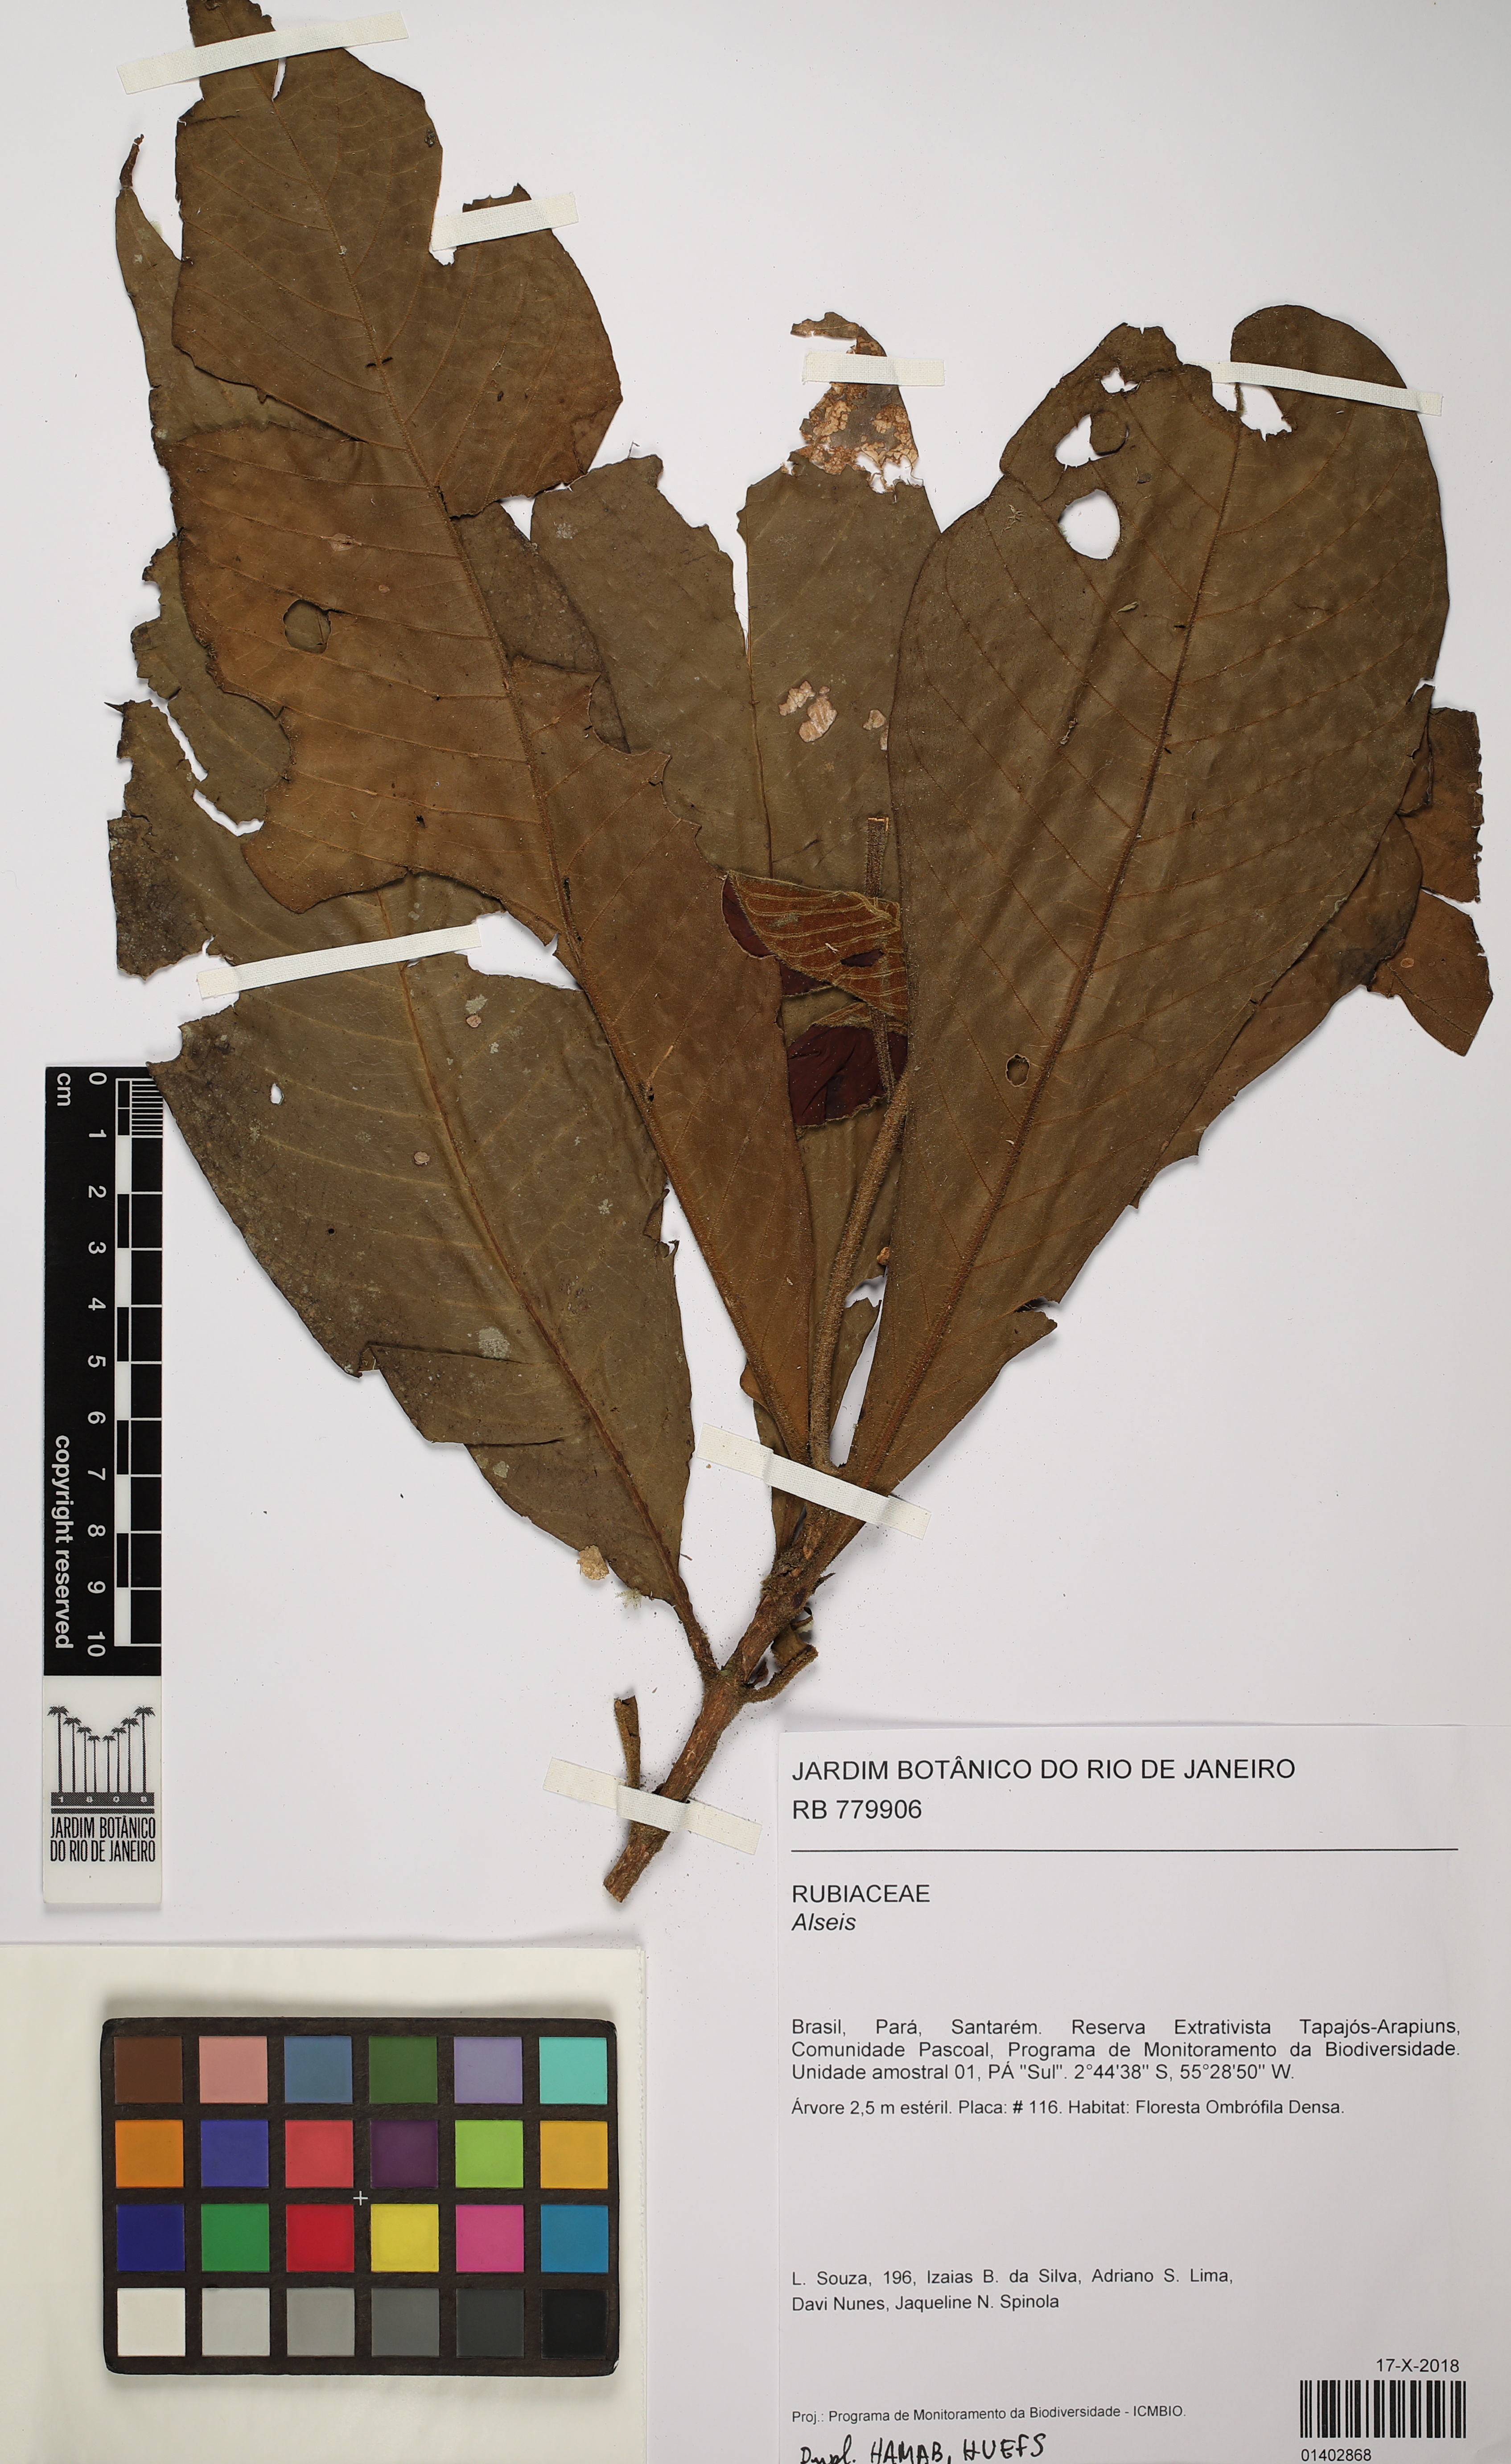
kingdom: Plantae
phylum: Tracheophyta
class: Magnoliopsida
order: Gentianales
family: Rubiaceae
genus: Alseis
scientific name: Alseis
